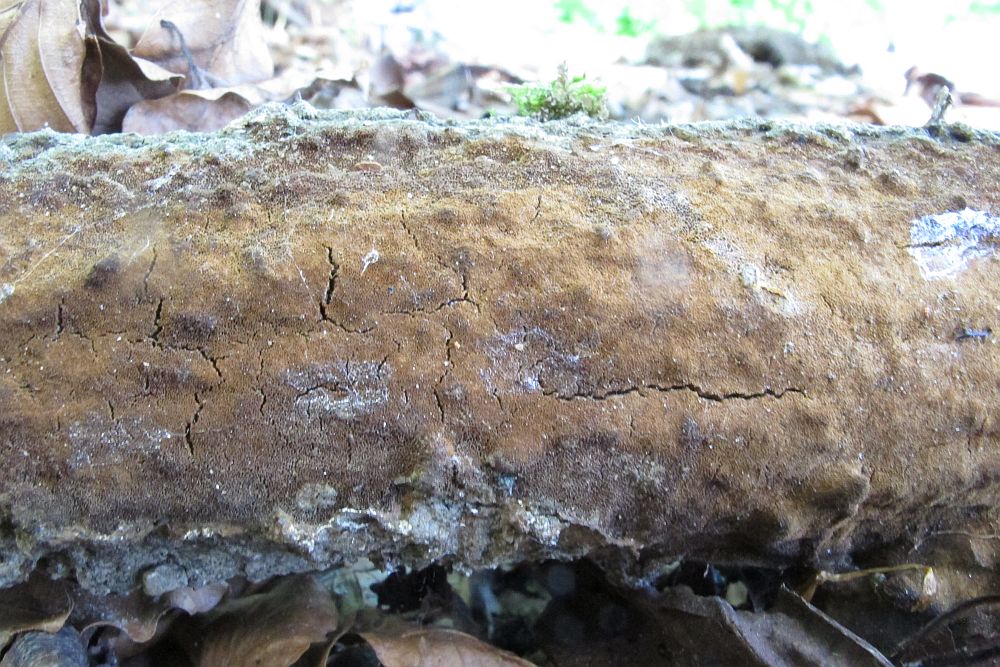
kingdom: Fungi
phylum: Basidiomycota
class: Agaricomycetes
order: Hymenochaetales
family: Hymenochaetaceae
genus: Fuscoporia
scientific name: Fuscoporia ferrea
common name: skorpe-ildporesvamp
